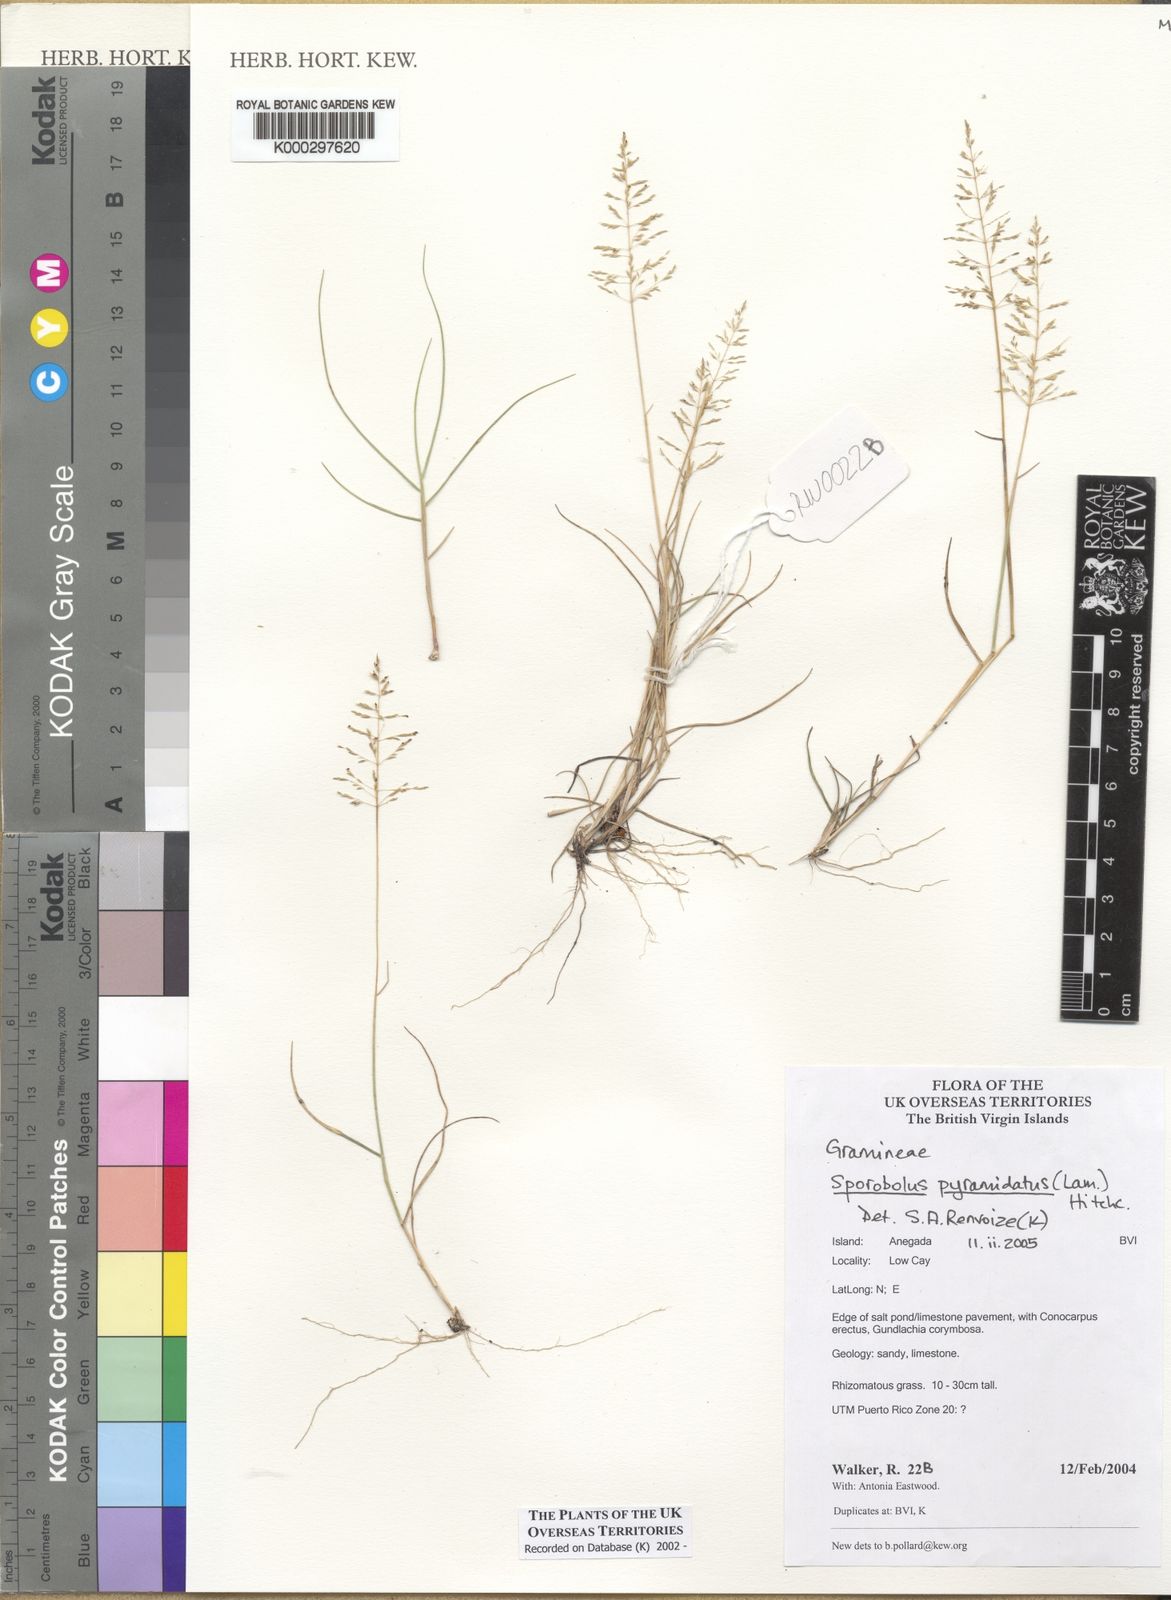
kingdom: Plantae
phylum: Tracheophyta
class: Liliopsida
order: Poales
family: Poaceae
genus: Sporobolus
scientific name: Sporobolus pyramidatus
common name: Whorled dropseed
